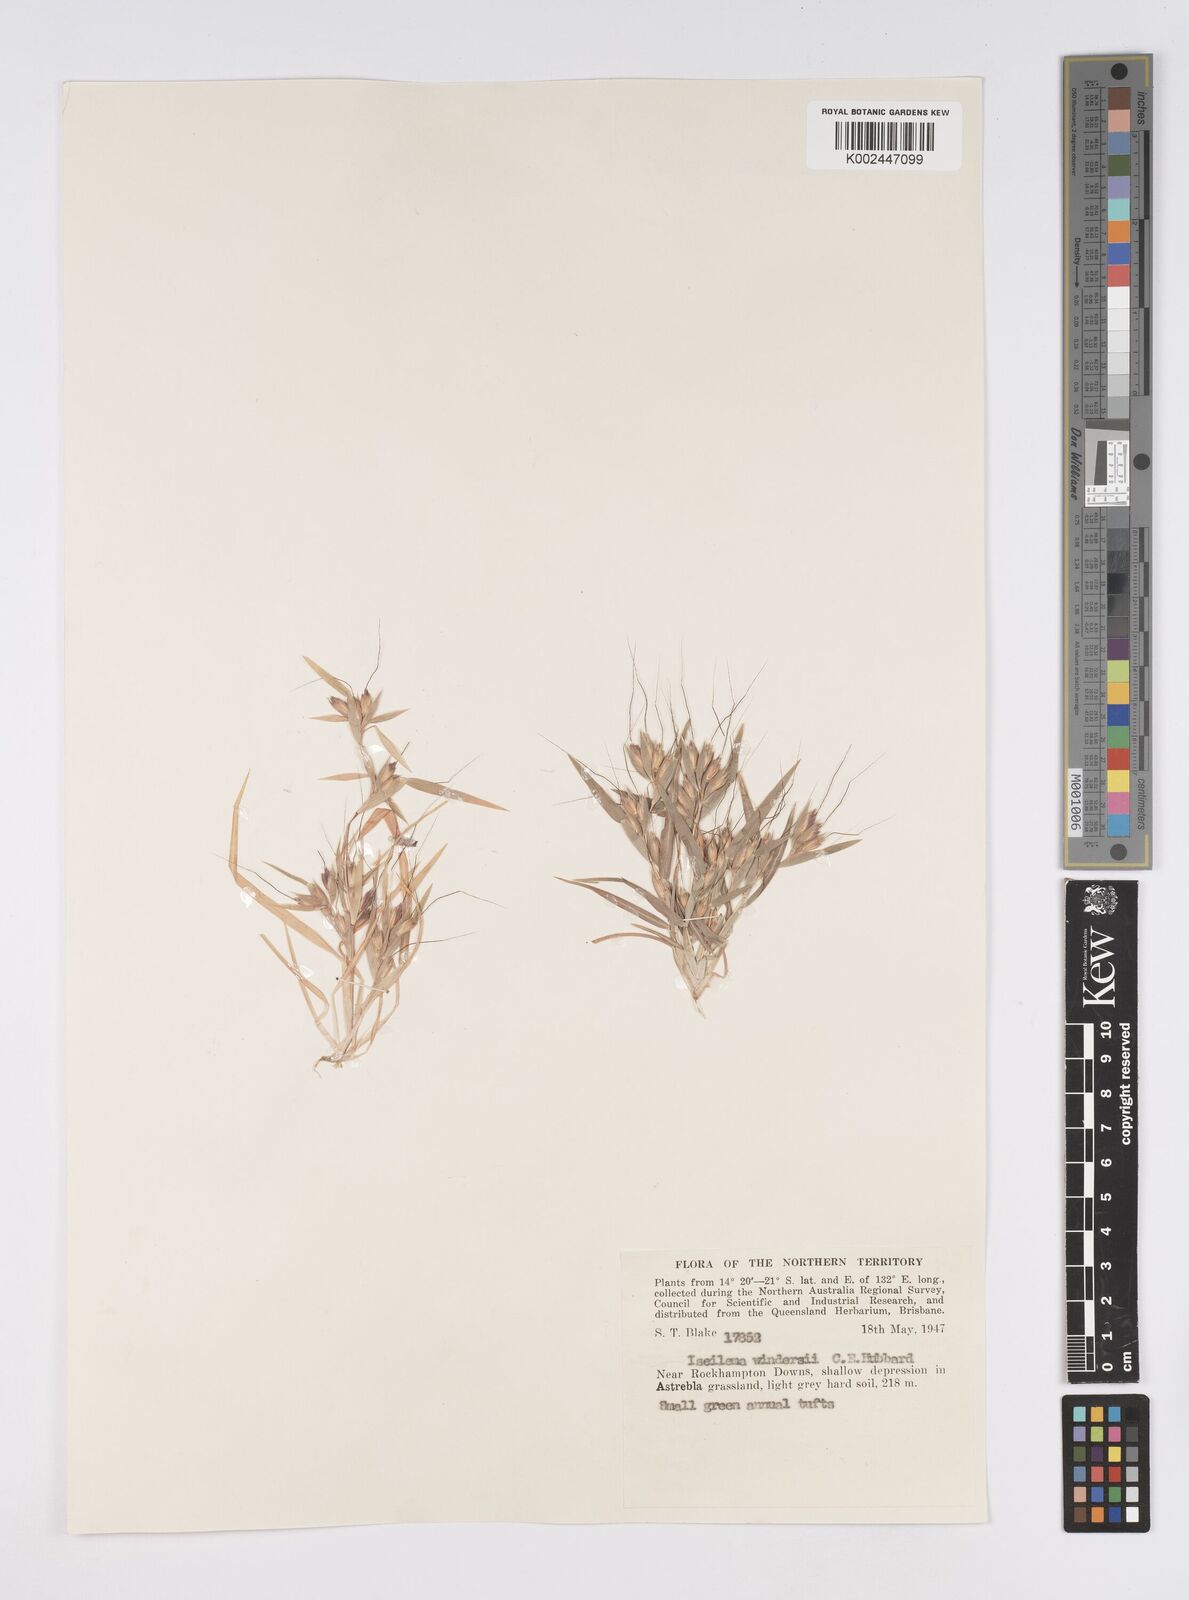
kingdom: Plantae
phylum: Tracheophyta
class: Liliopsida
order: Poales
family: Poaceae
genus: Iseilema
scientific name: Iseilema windersii
